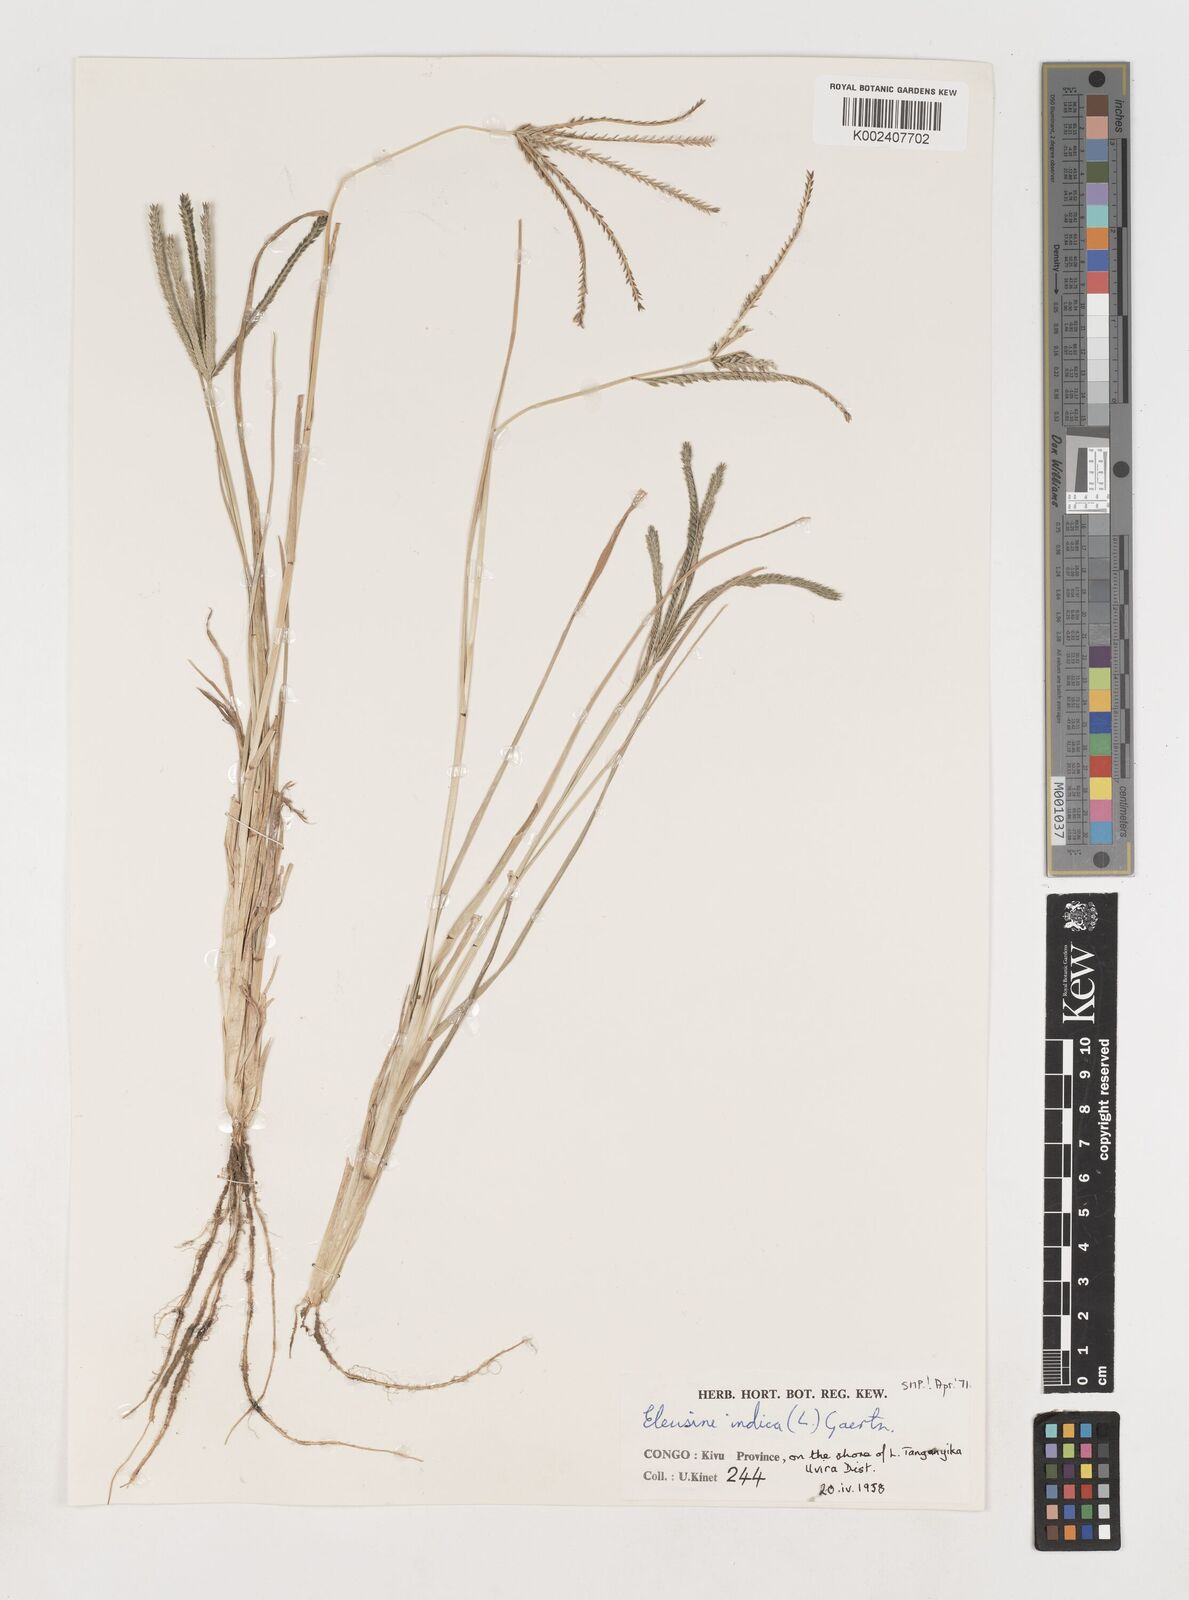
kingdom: Plantae
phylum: Tracheophyta
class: Liliopsida
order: Poales
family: Poaceae
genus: Eleusine
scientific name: Eleusine indica
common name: Yard-grass
